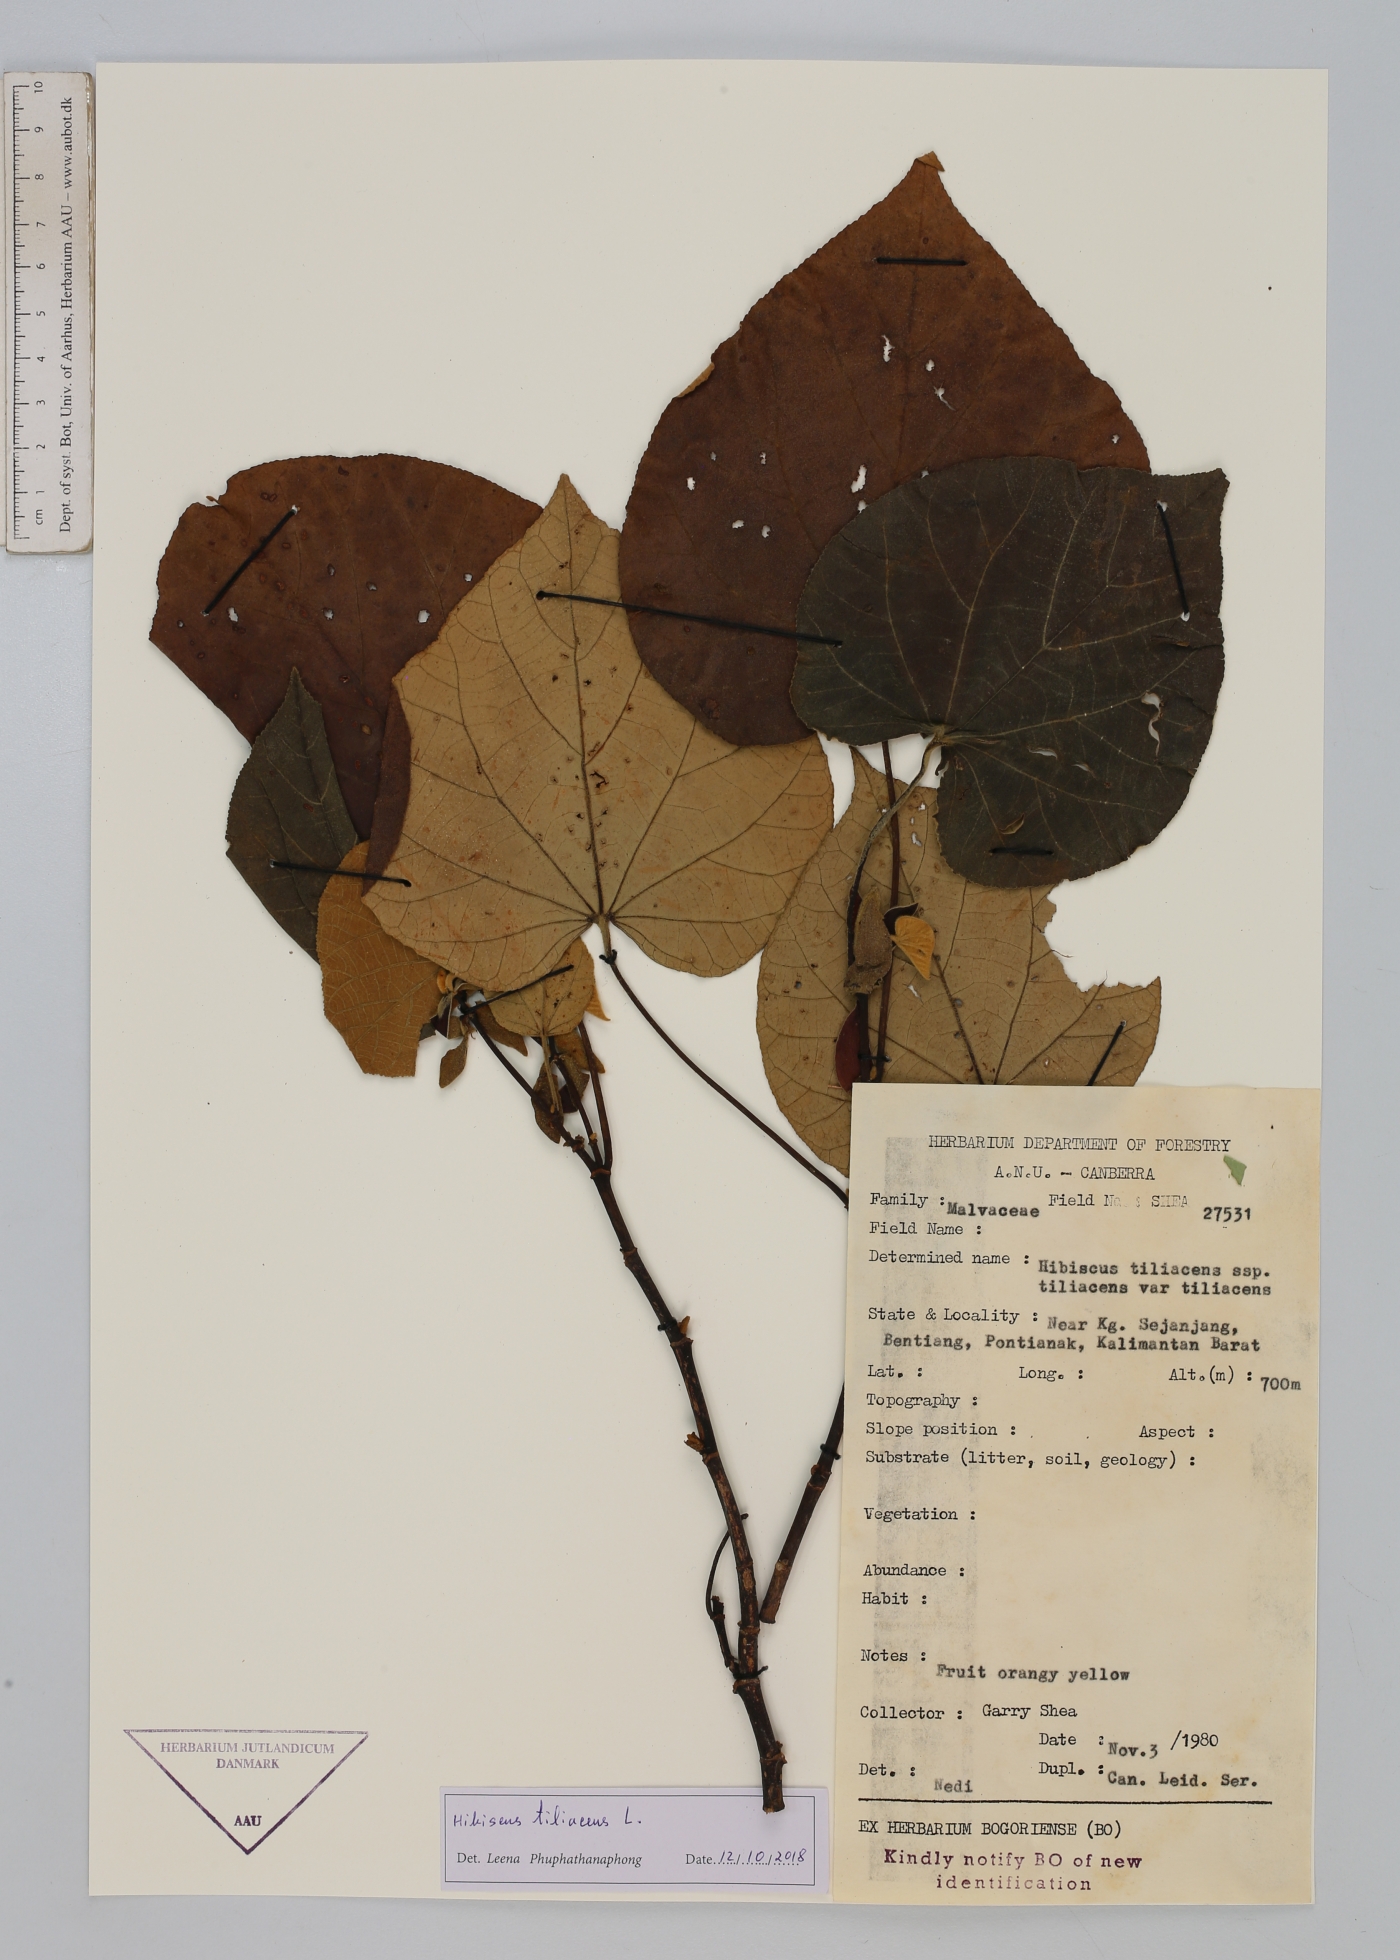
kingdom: Plantae
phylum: Tracheophyta
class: Magnoliopsida
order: Malvales
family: Malvaceae
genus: Talipariti
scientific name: Talipariti tiliaceum
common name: Sea hibiscus
